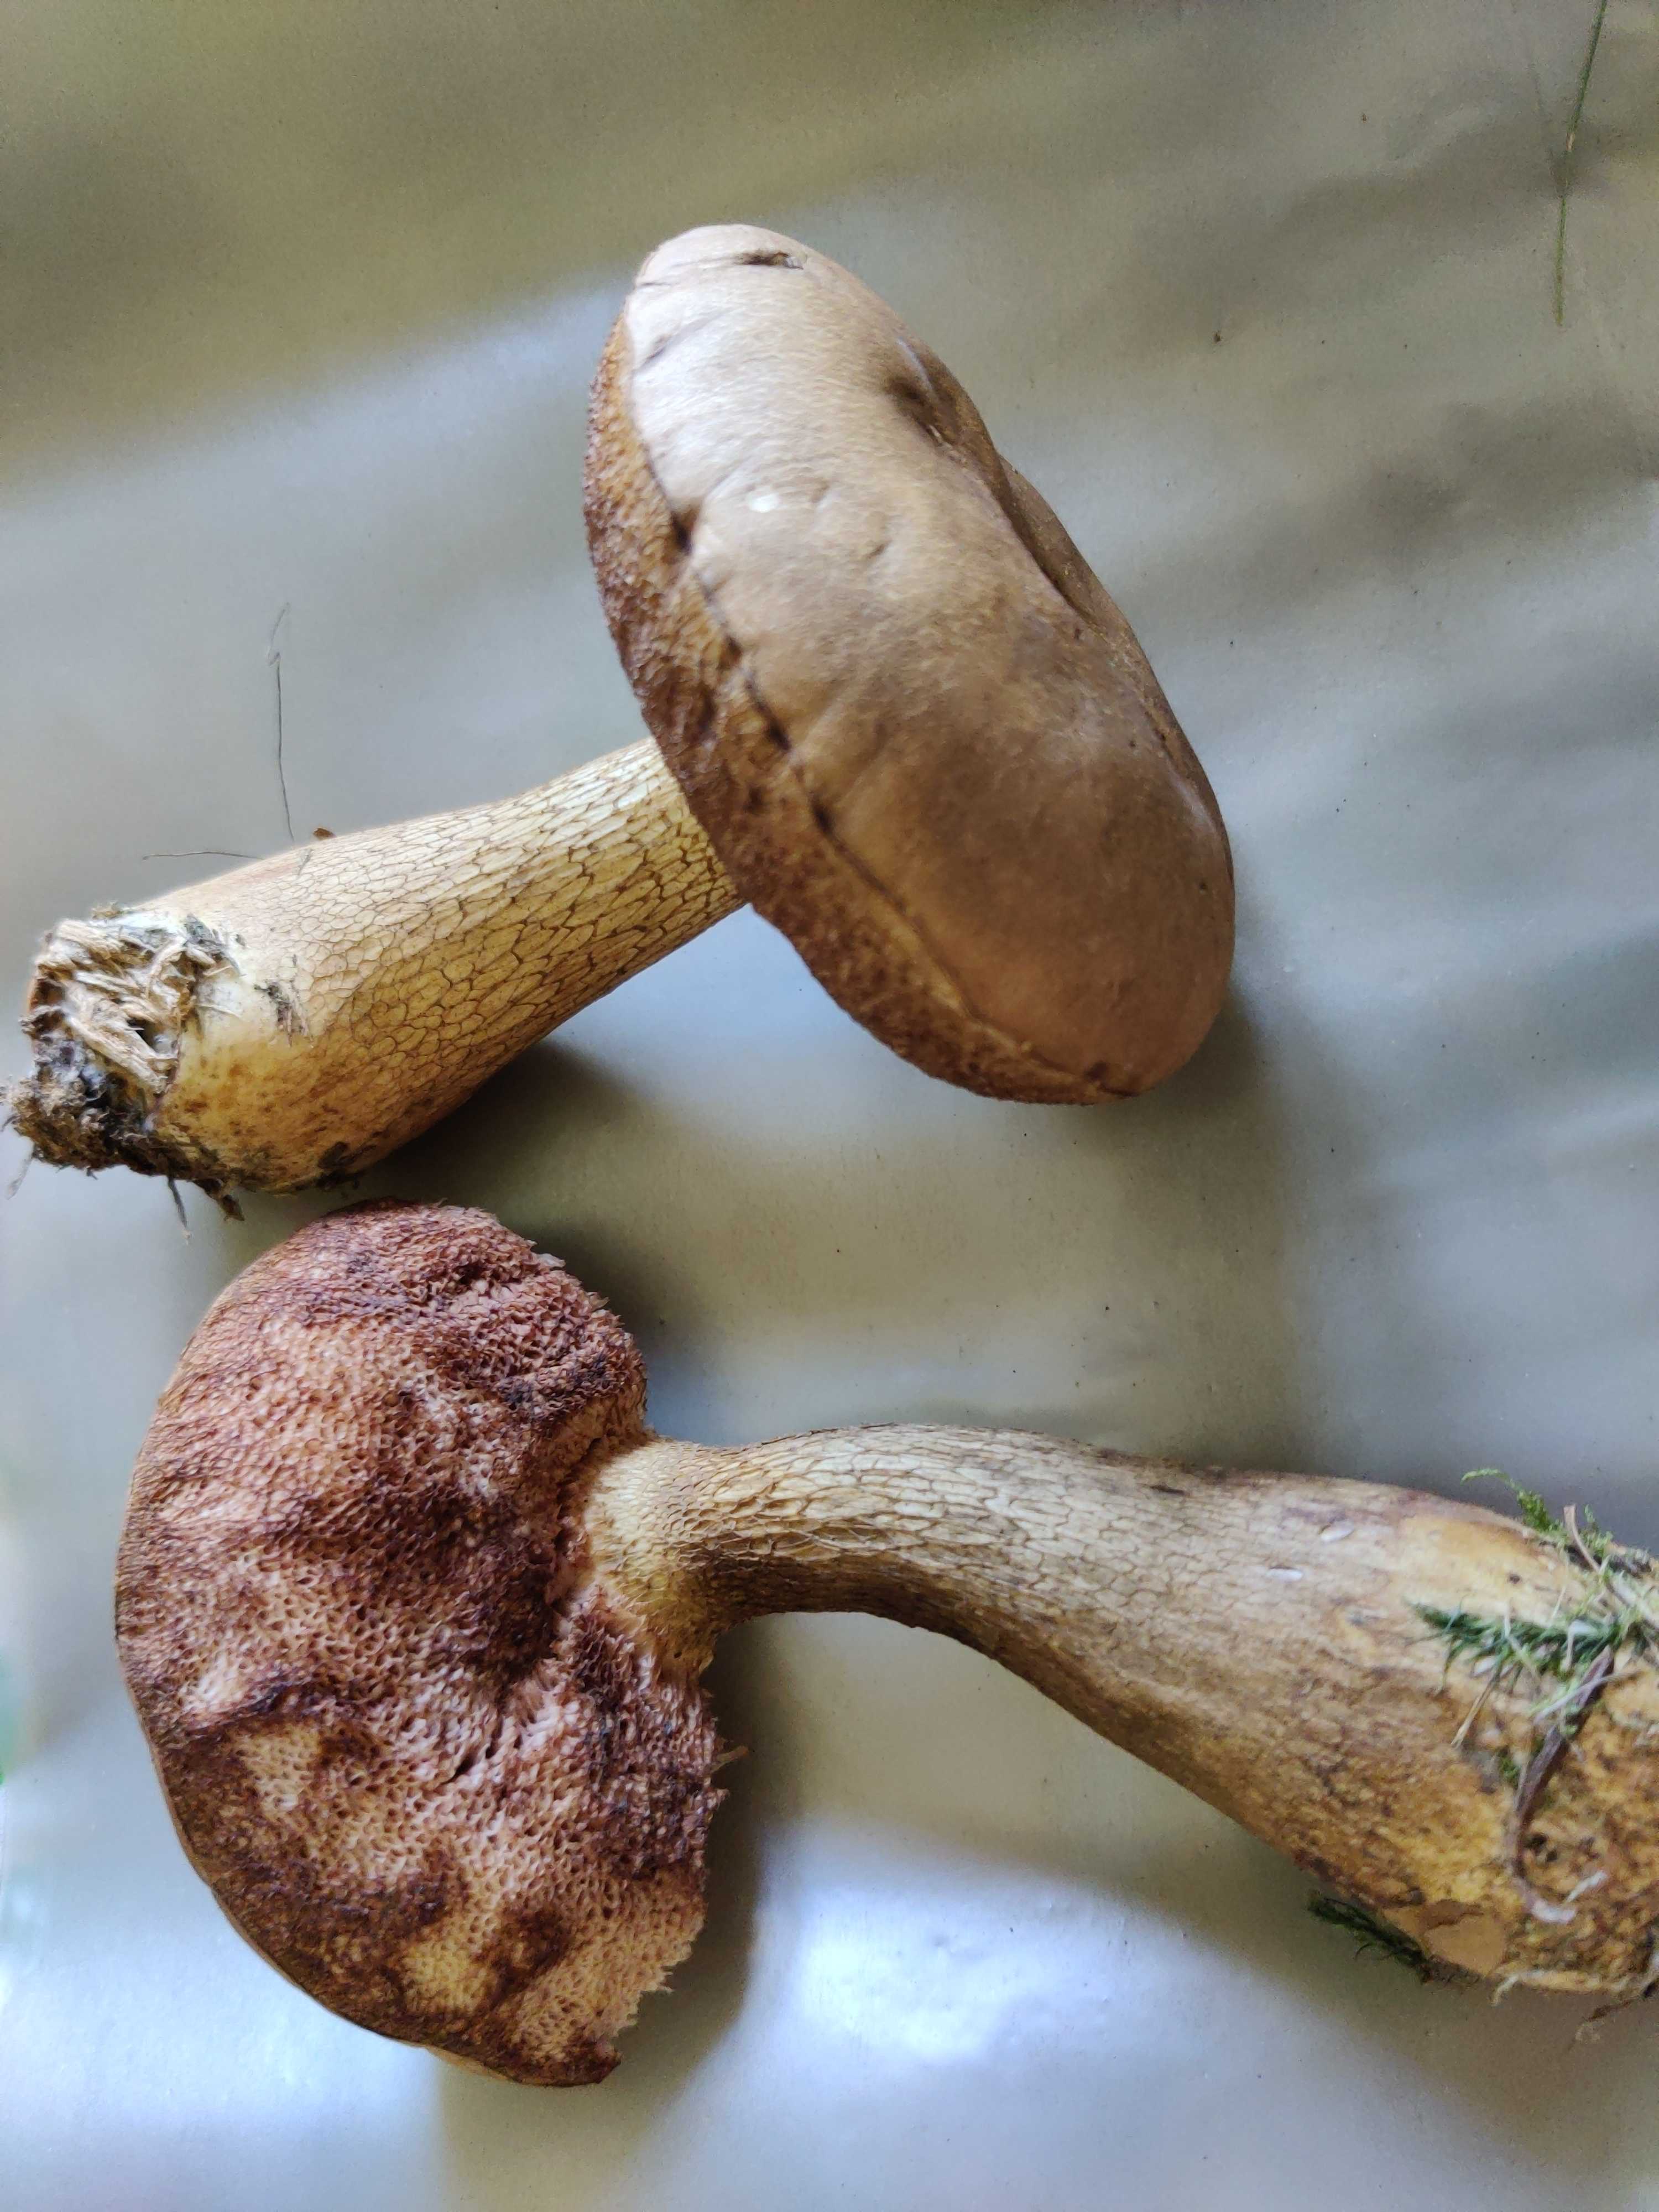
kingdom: Fungi
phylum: Basidiomycota
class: Agaricomycetes
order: Boletales
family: Boletaceae
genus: Tylopilus
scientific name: Tylopilus felleus
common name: galderørhat
